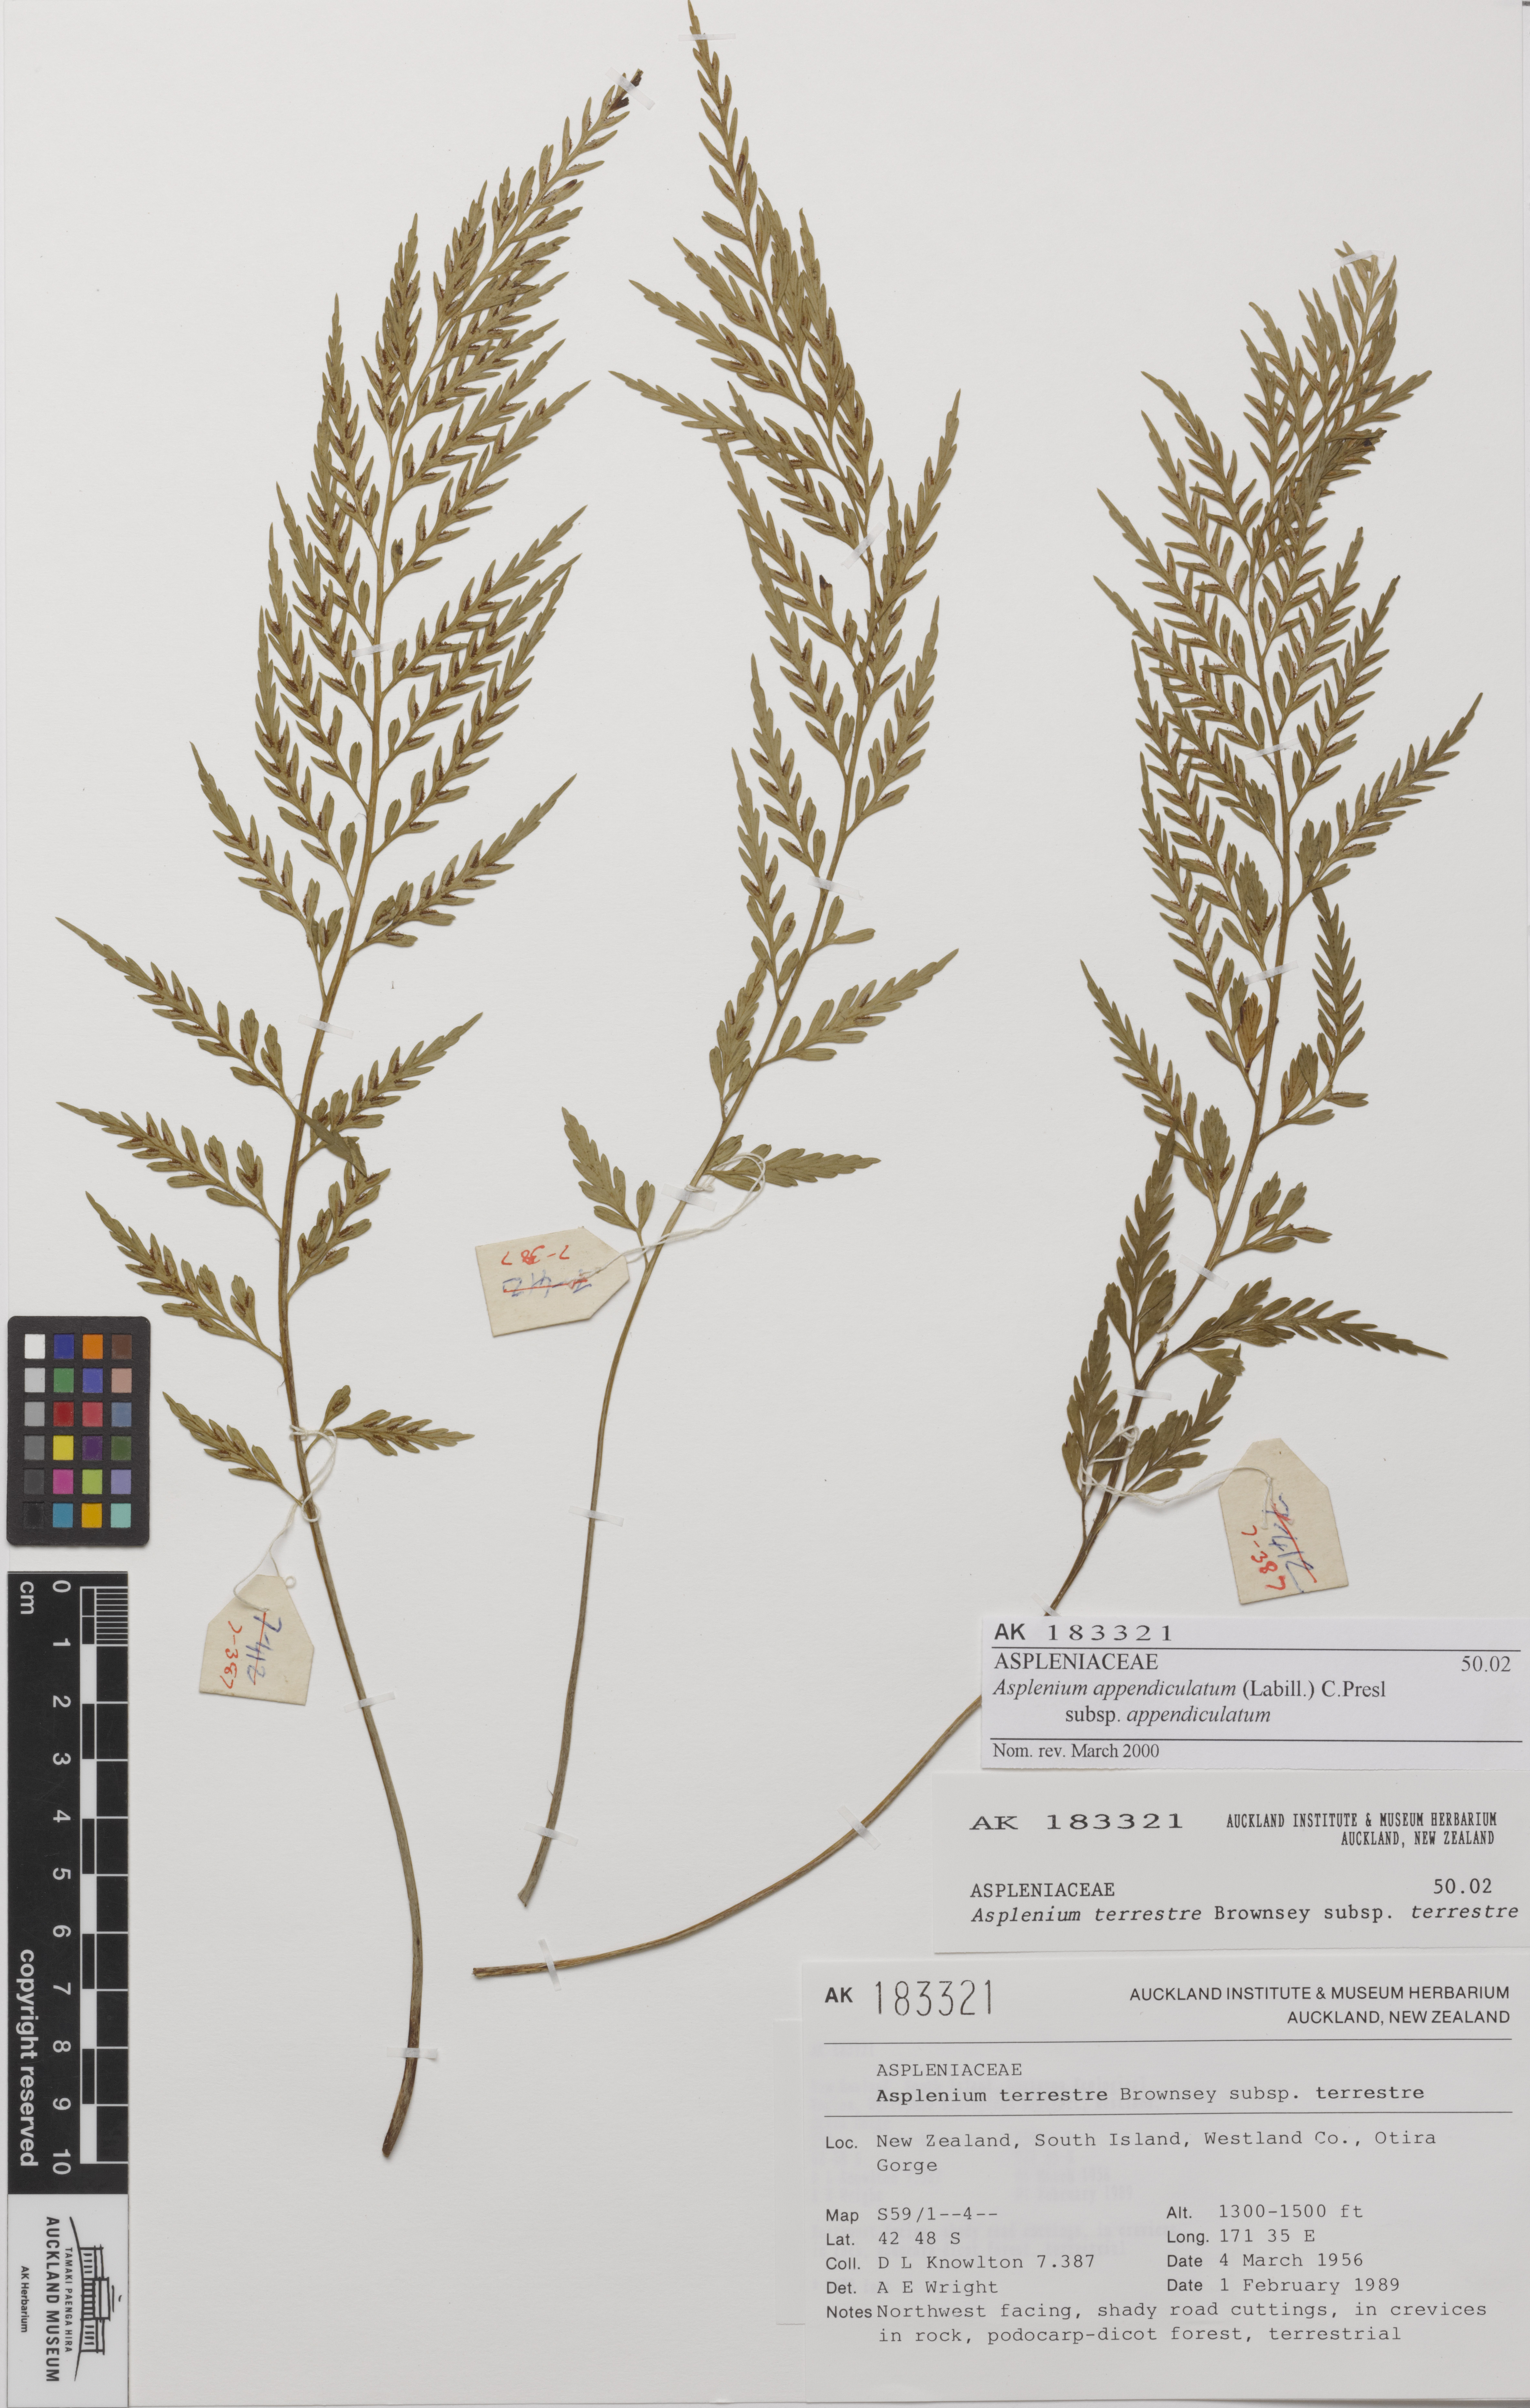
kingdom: Plantae
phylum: Tracheophyta
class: Polypodiopsida
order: Polypodiales
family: Aspleniaceae
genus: Asplenium
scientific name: Asplenium appendiculatum
